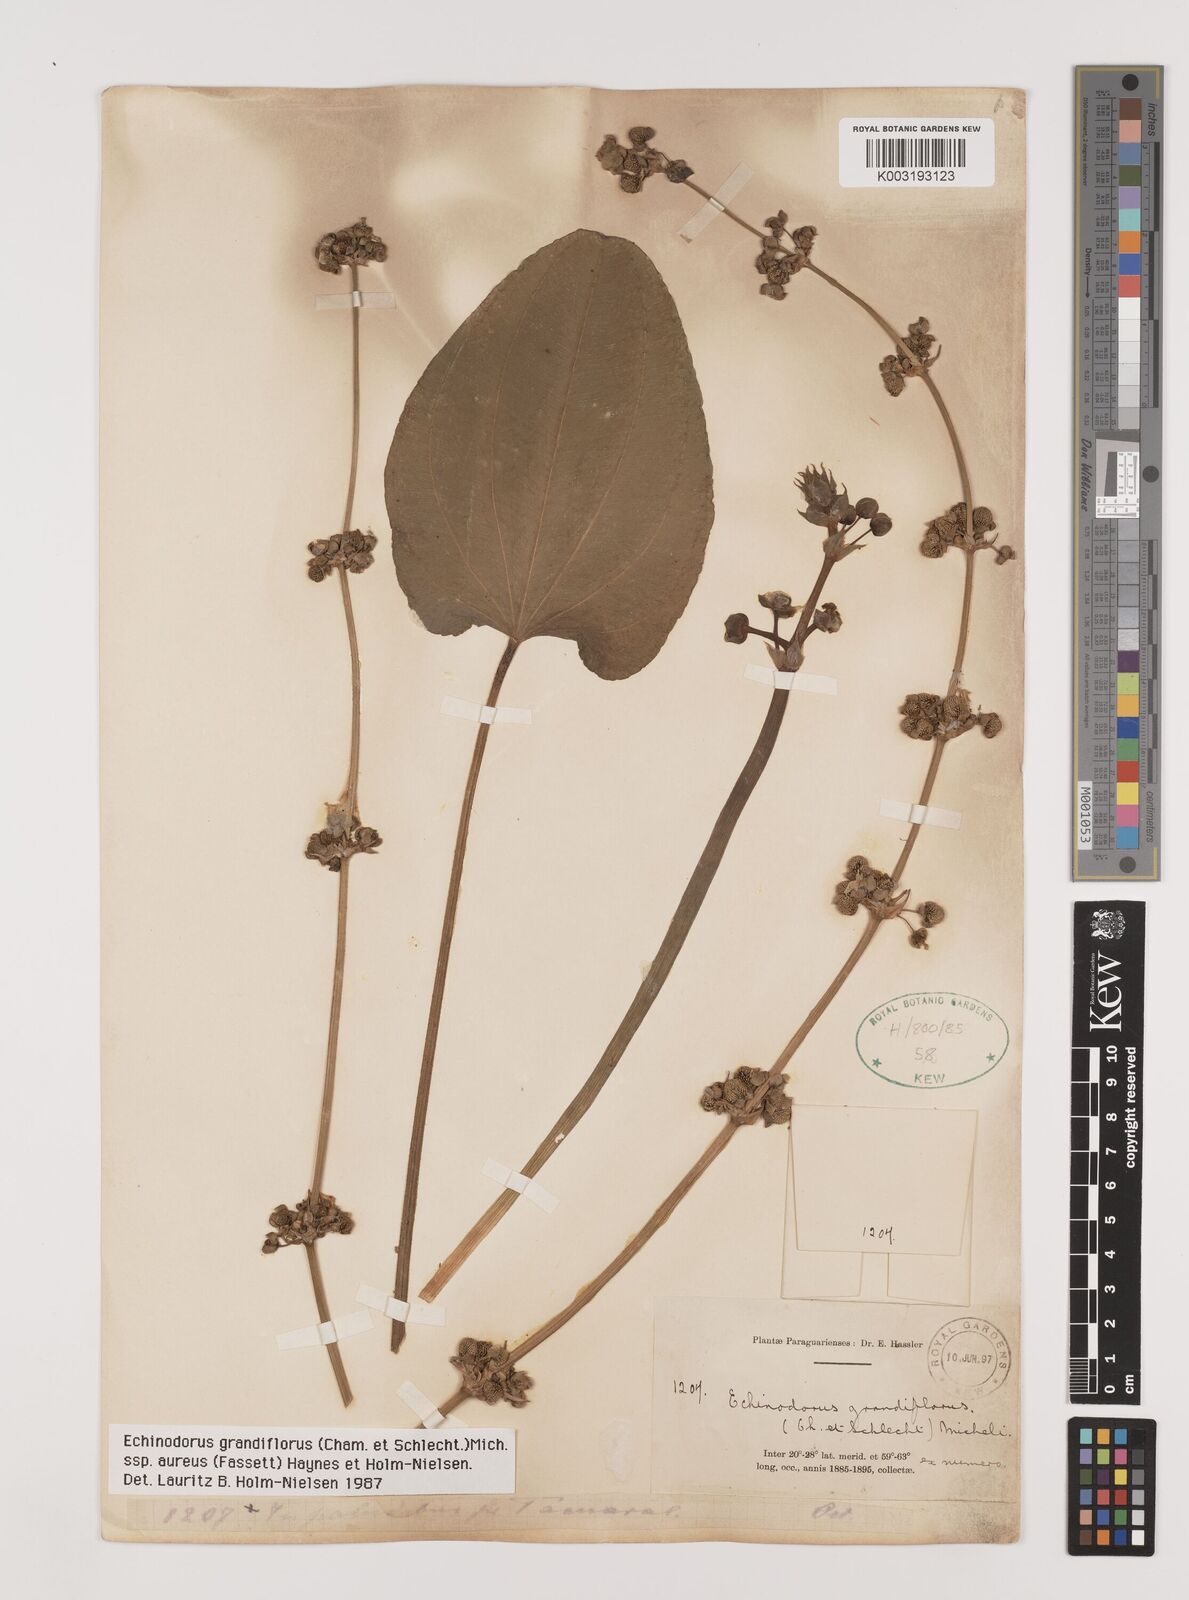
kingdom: Plantae
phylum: Tracheophyta
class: Liliopsida
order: Alismatales
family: Alismataceae
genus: Aquarius
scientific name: Aquarius floribundus
